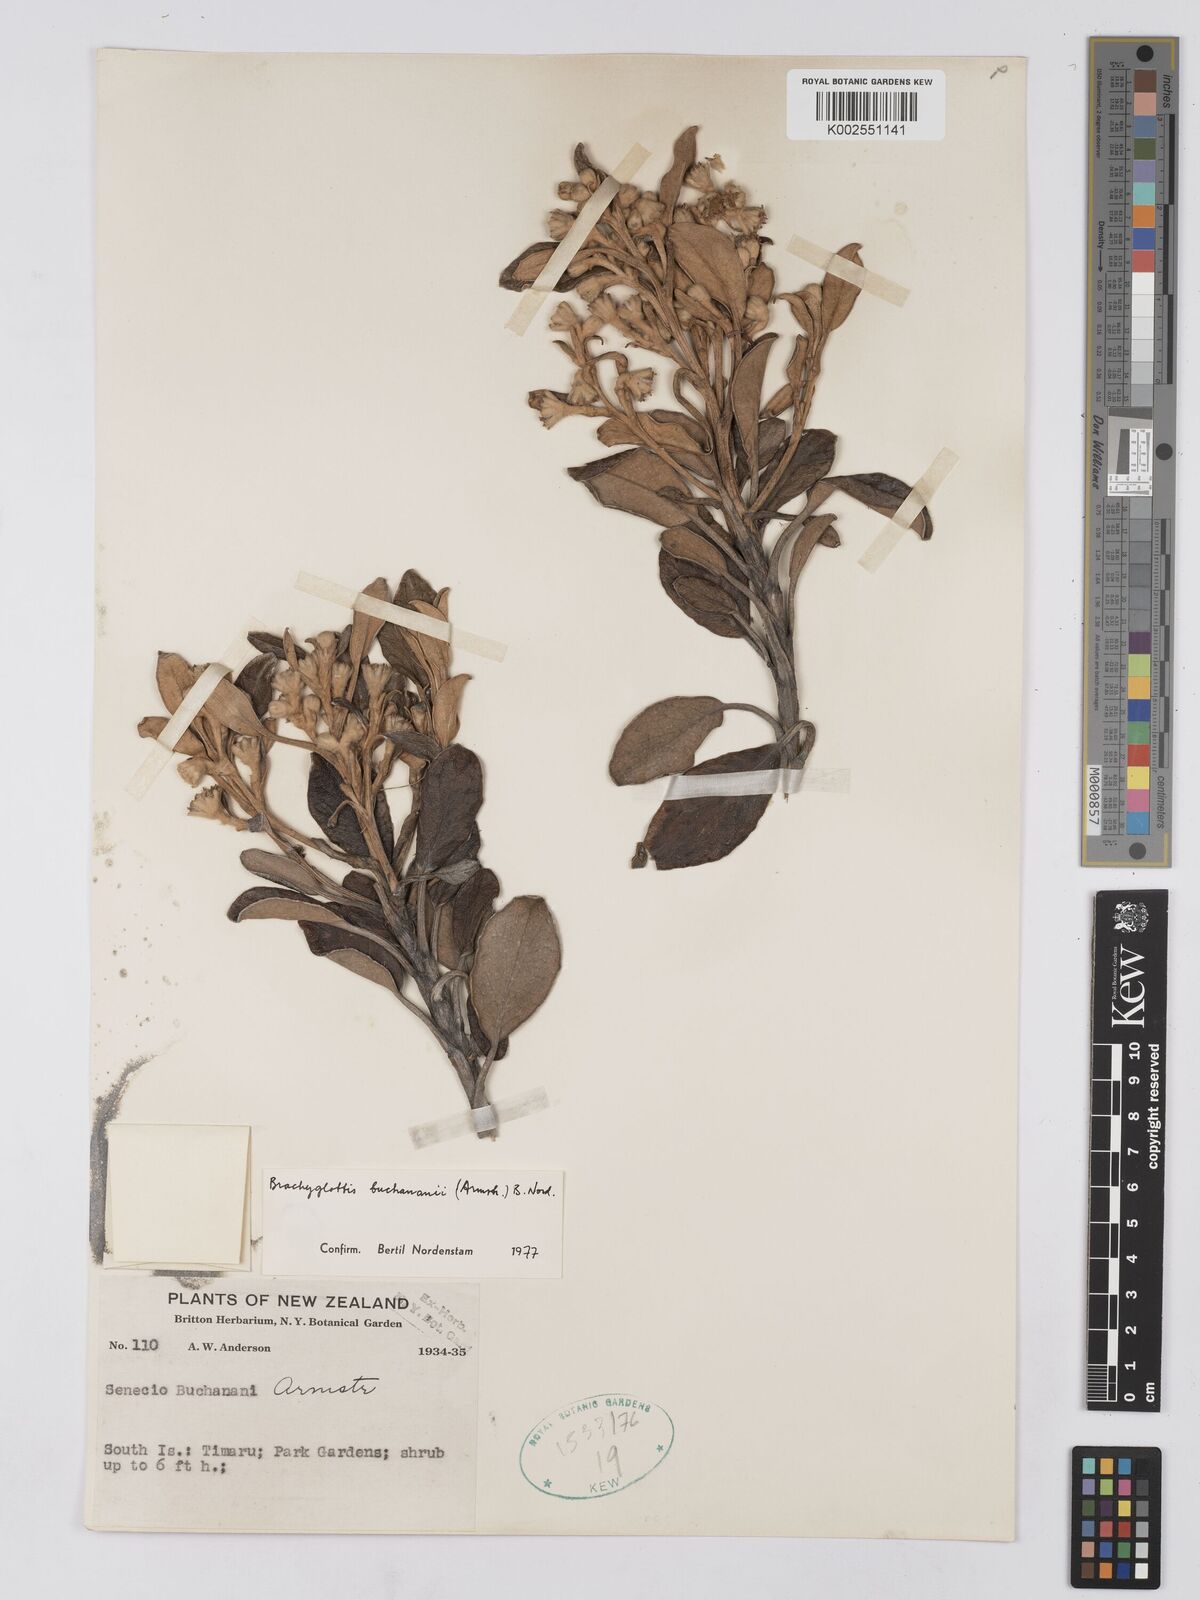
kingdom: Plantae
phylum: Tracheophyta
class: Magnoliopsida
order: Asterales
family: Asteraceae
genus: Brachyglottis
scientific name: Brachyglottis buchananii
